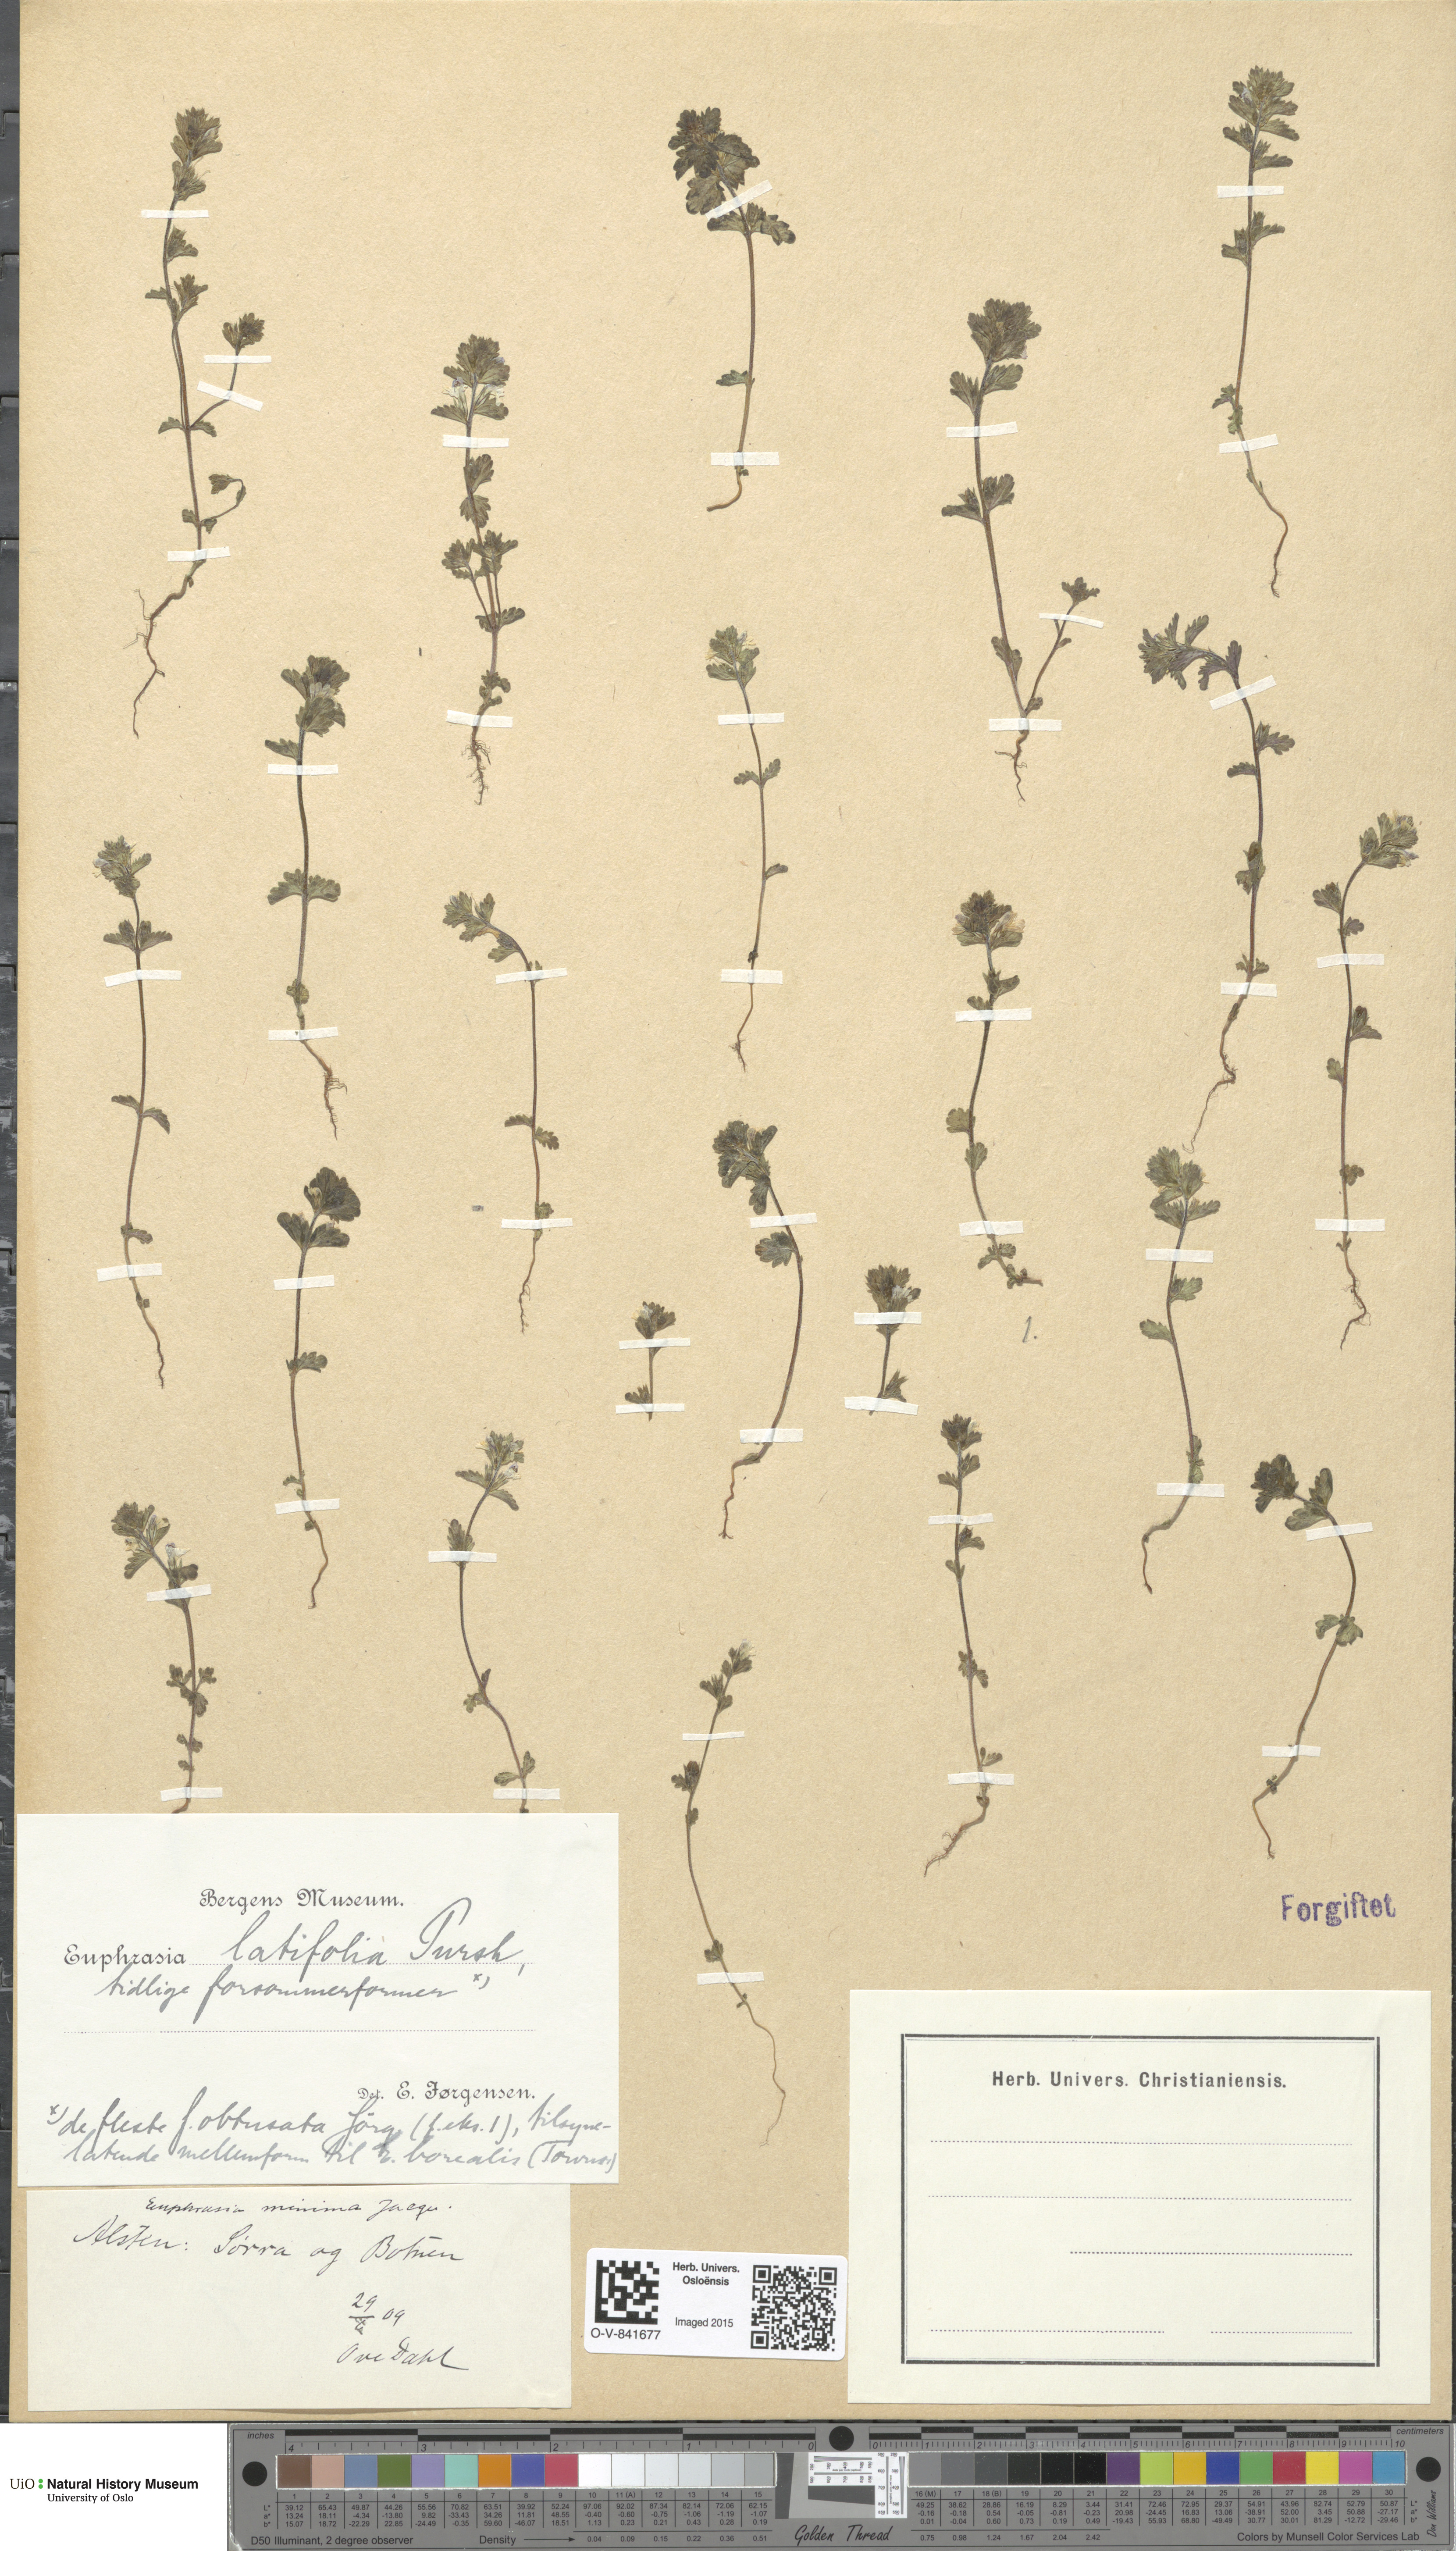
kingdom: Plantae
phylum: Tracheophyta
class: Magnoliopsida
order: Lamiales
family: Orobanchaceae
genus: Euphrasia
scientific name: Euphrasia wettsteinii
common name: Wettstein's eyebright
